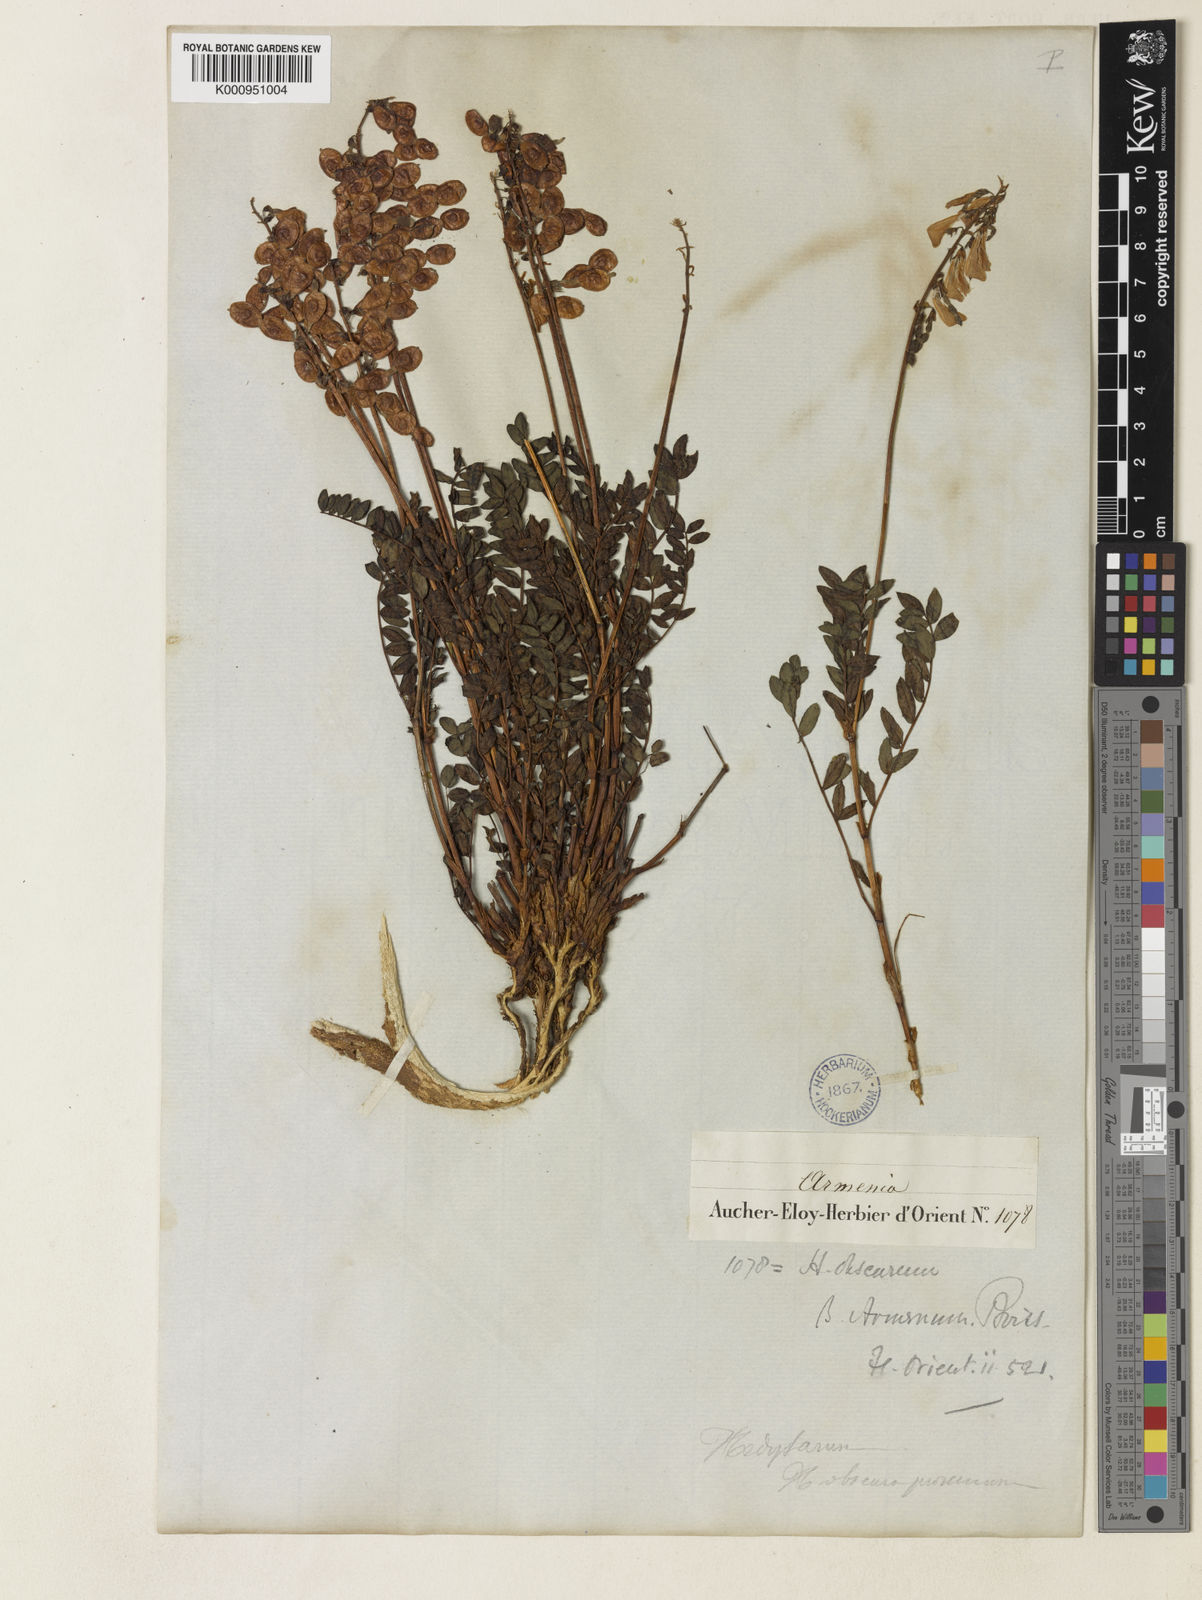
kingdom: Plantae
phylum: Tracheophyta
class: Magnoliopsida
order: Fabales
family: Fabaceae
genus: Onobrychis
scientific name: Onobrychis humilis
